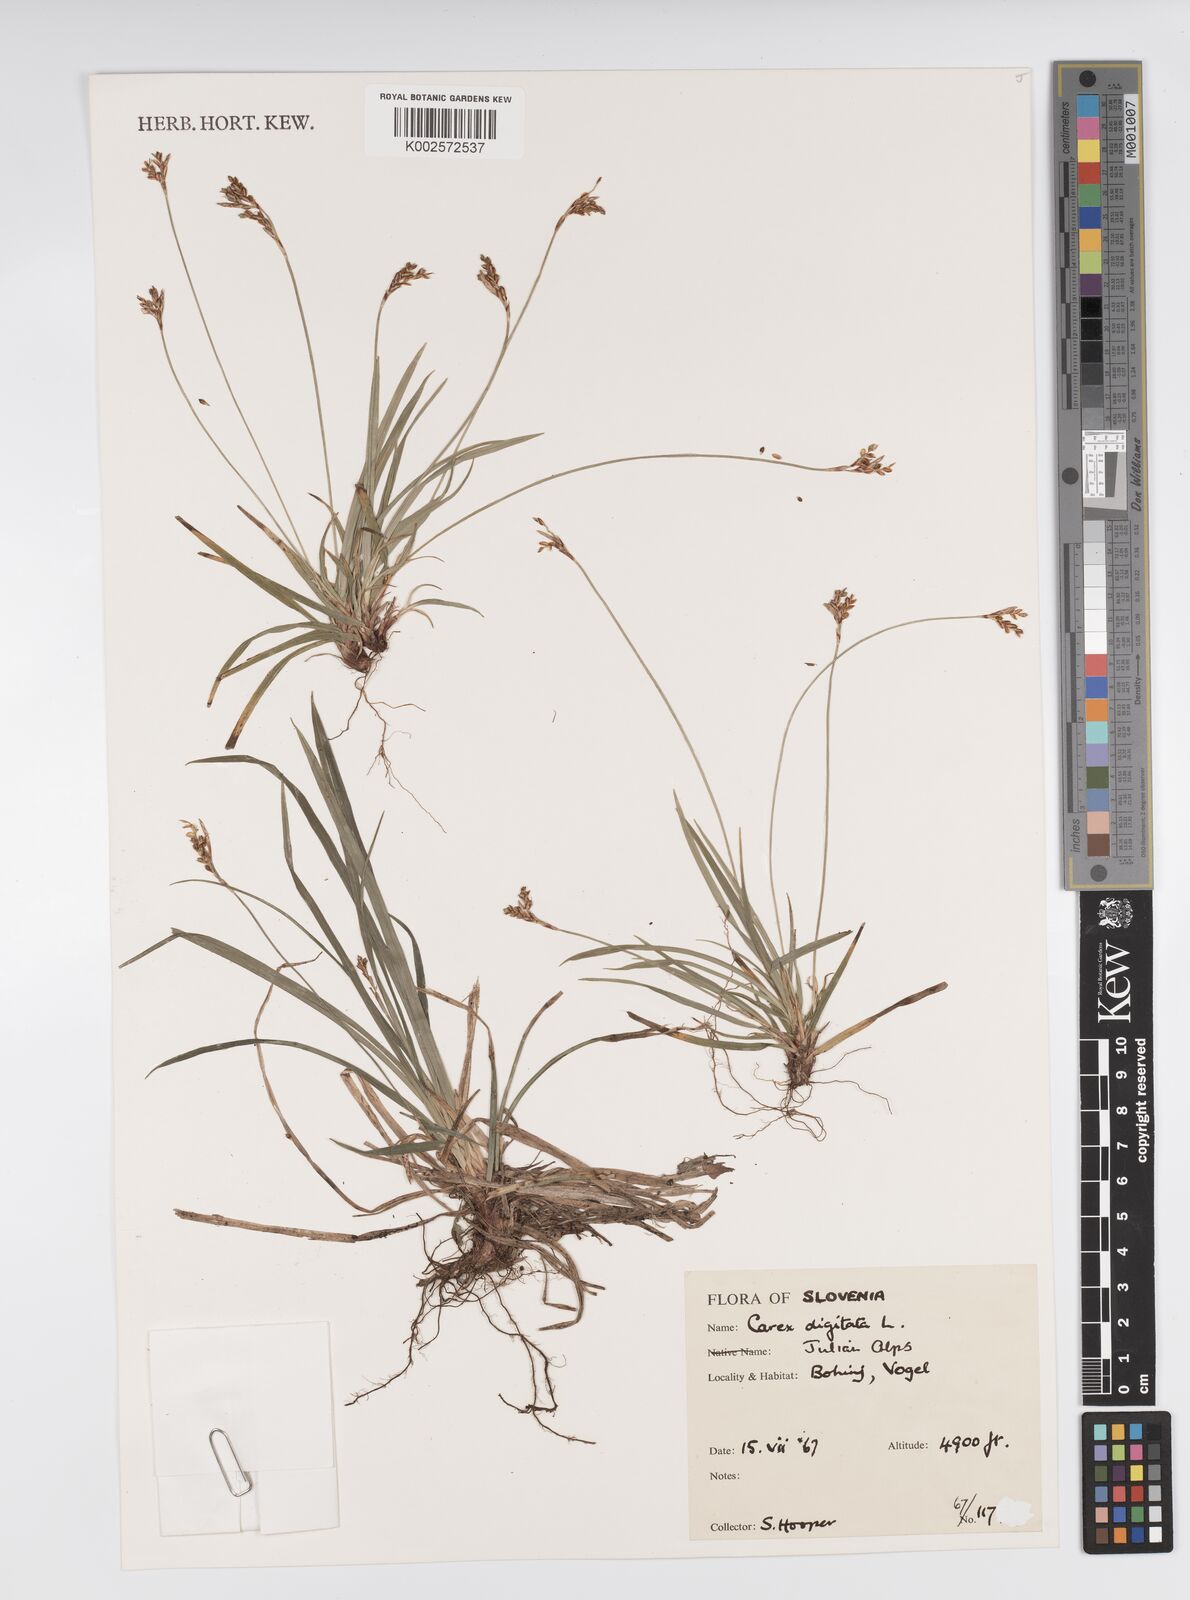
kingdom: Plantae
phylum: Tracheophyta
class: Liliopsida
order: Poales
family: Cyperaceae
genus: Carex
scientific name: Carex digitata
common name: Fingered sedge
